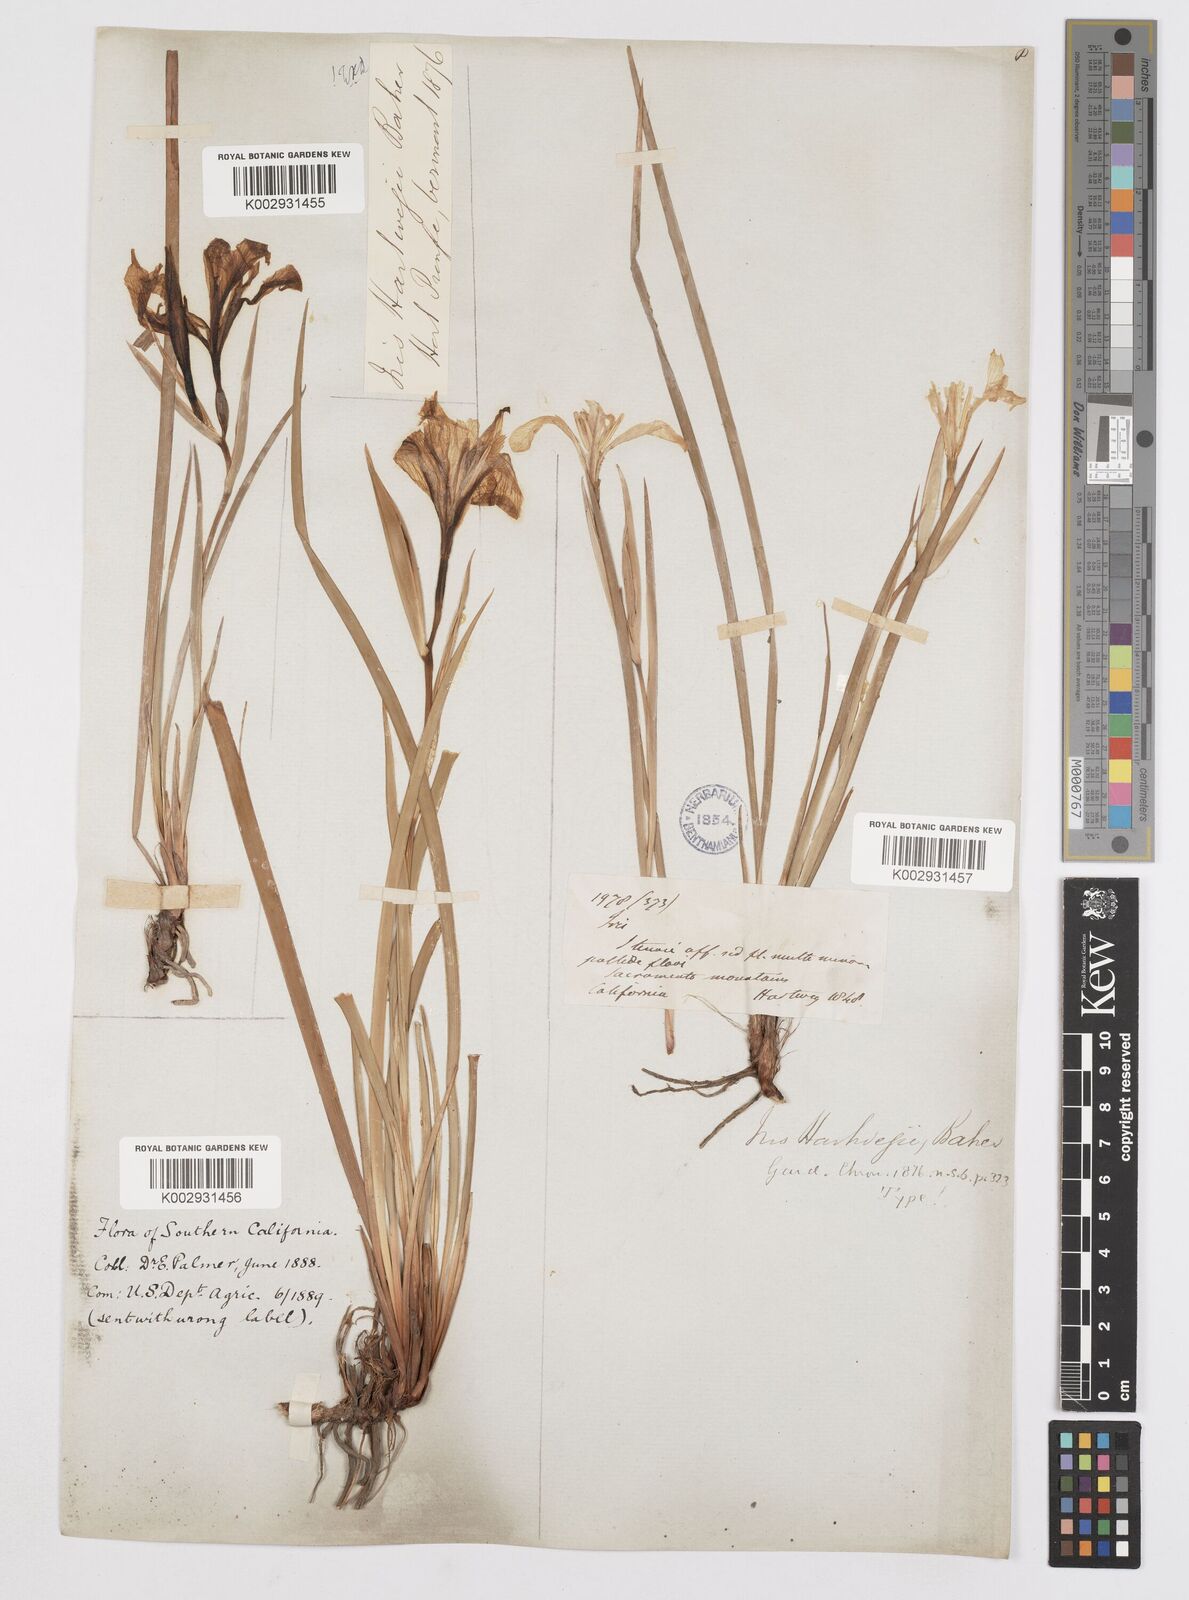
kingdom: Plantae
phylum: Tracheophyta
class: Liliopsida
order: Asparagales
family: Iridaceae
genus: Iris
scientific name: Iris hartwegii
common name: Sierra iris
